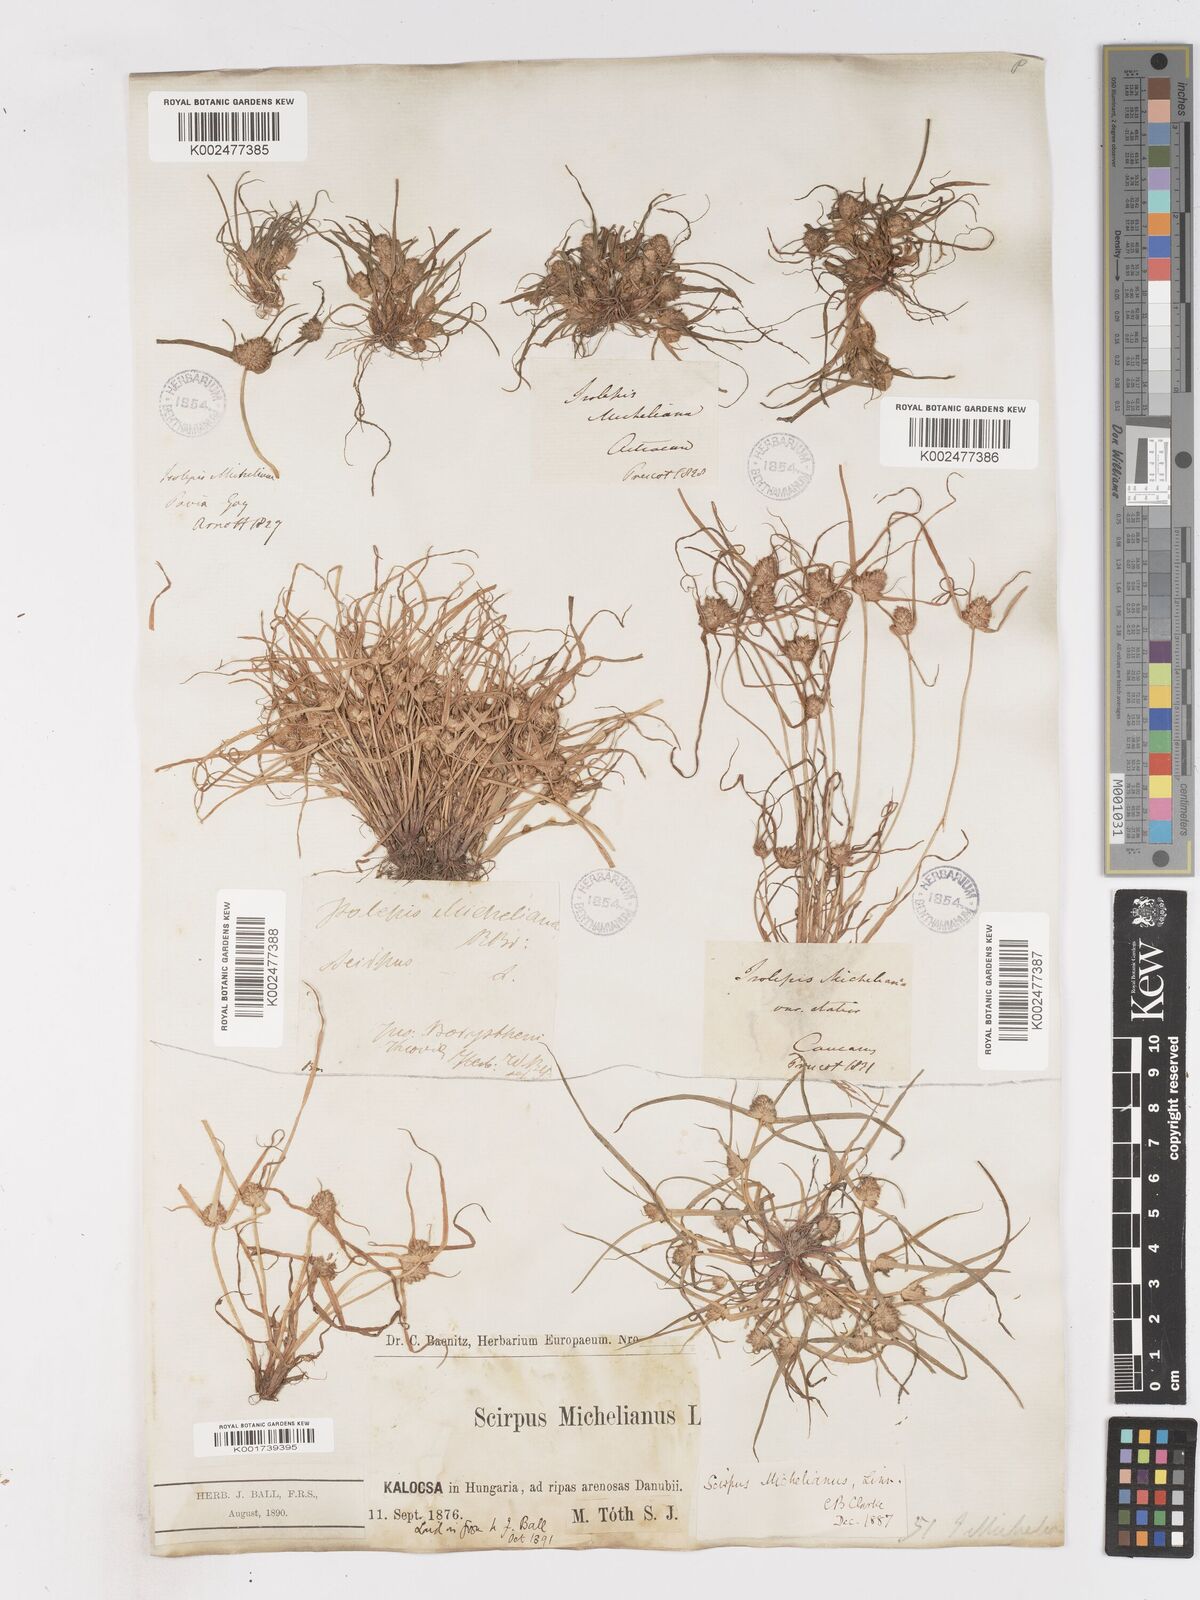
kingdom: Plantae
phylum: Tracheophyta
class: Liliopsida
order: Poales
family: Cyperaceae
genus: Cyperus
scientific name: Cyperus michelianus
